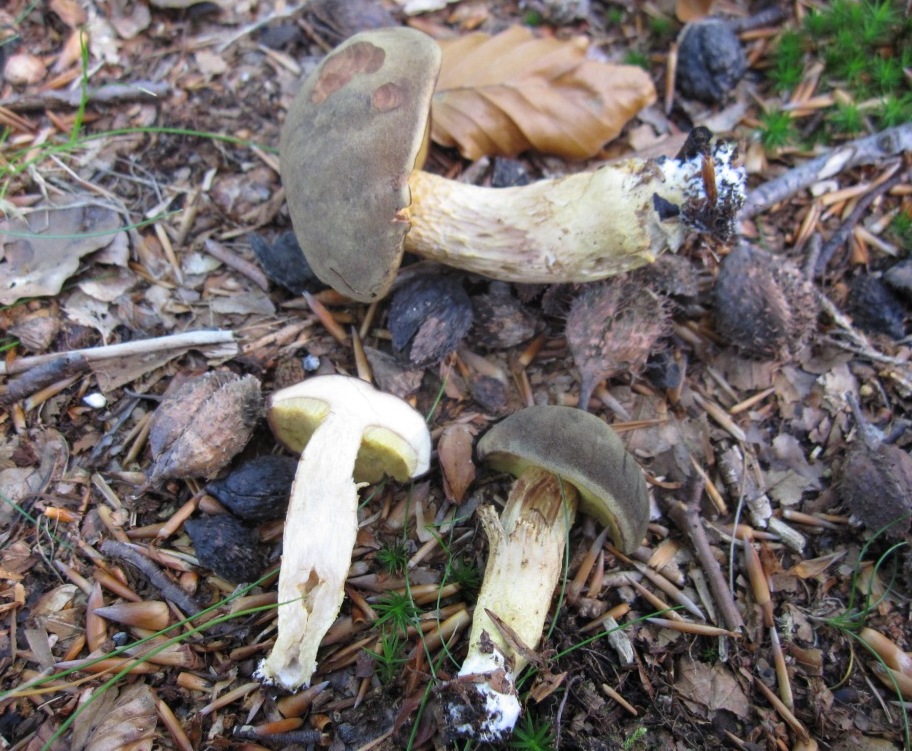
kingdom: Fungi
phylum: Basidiomycota
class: Agaricomycetes
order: Boletales
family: Boletaceae
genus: Xerocomus
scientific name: Xerocomus ferrugineus
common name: vaskeskinds-rørhat
